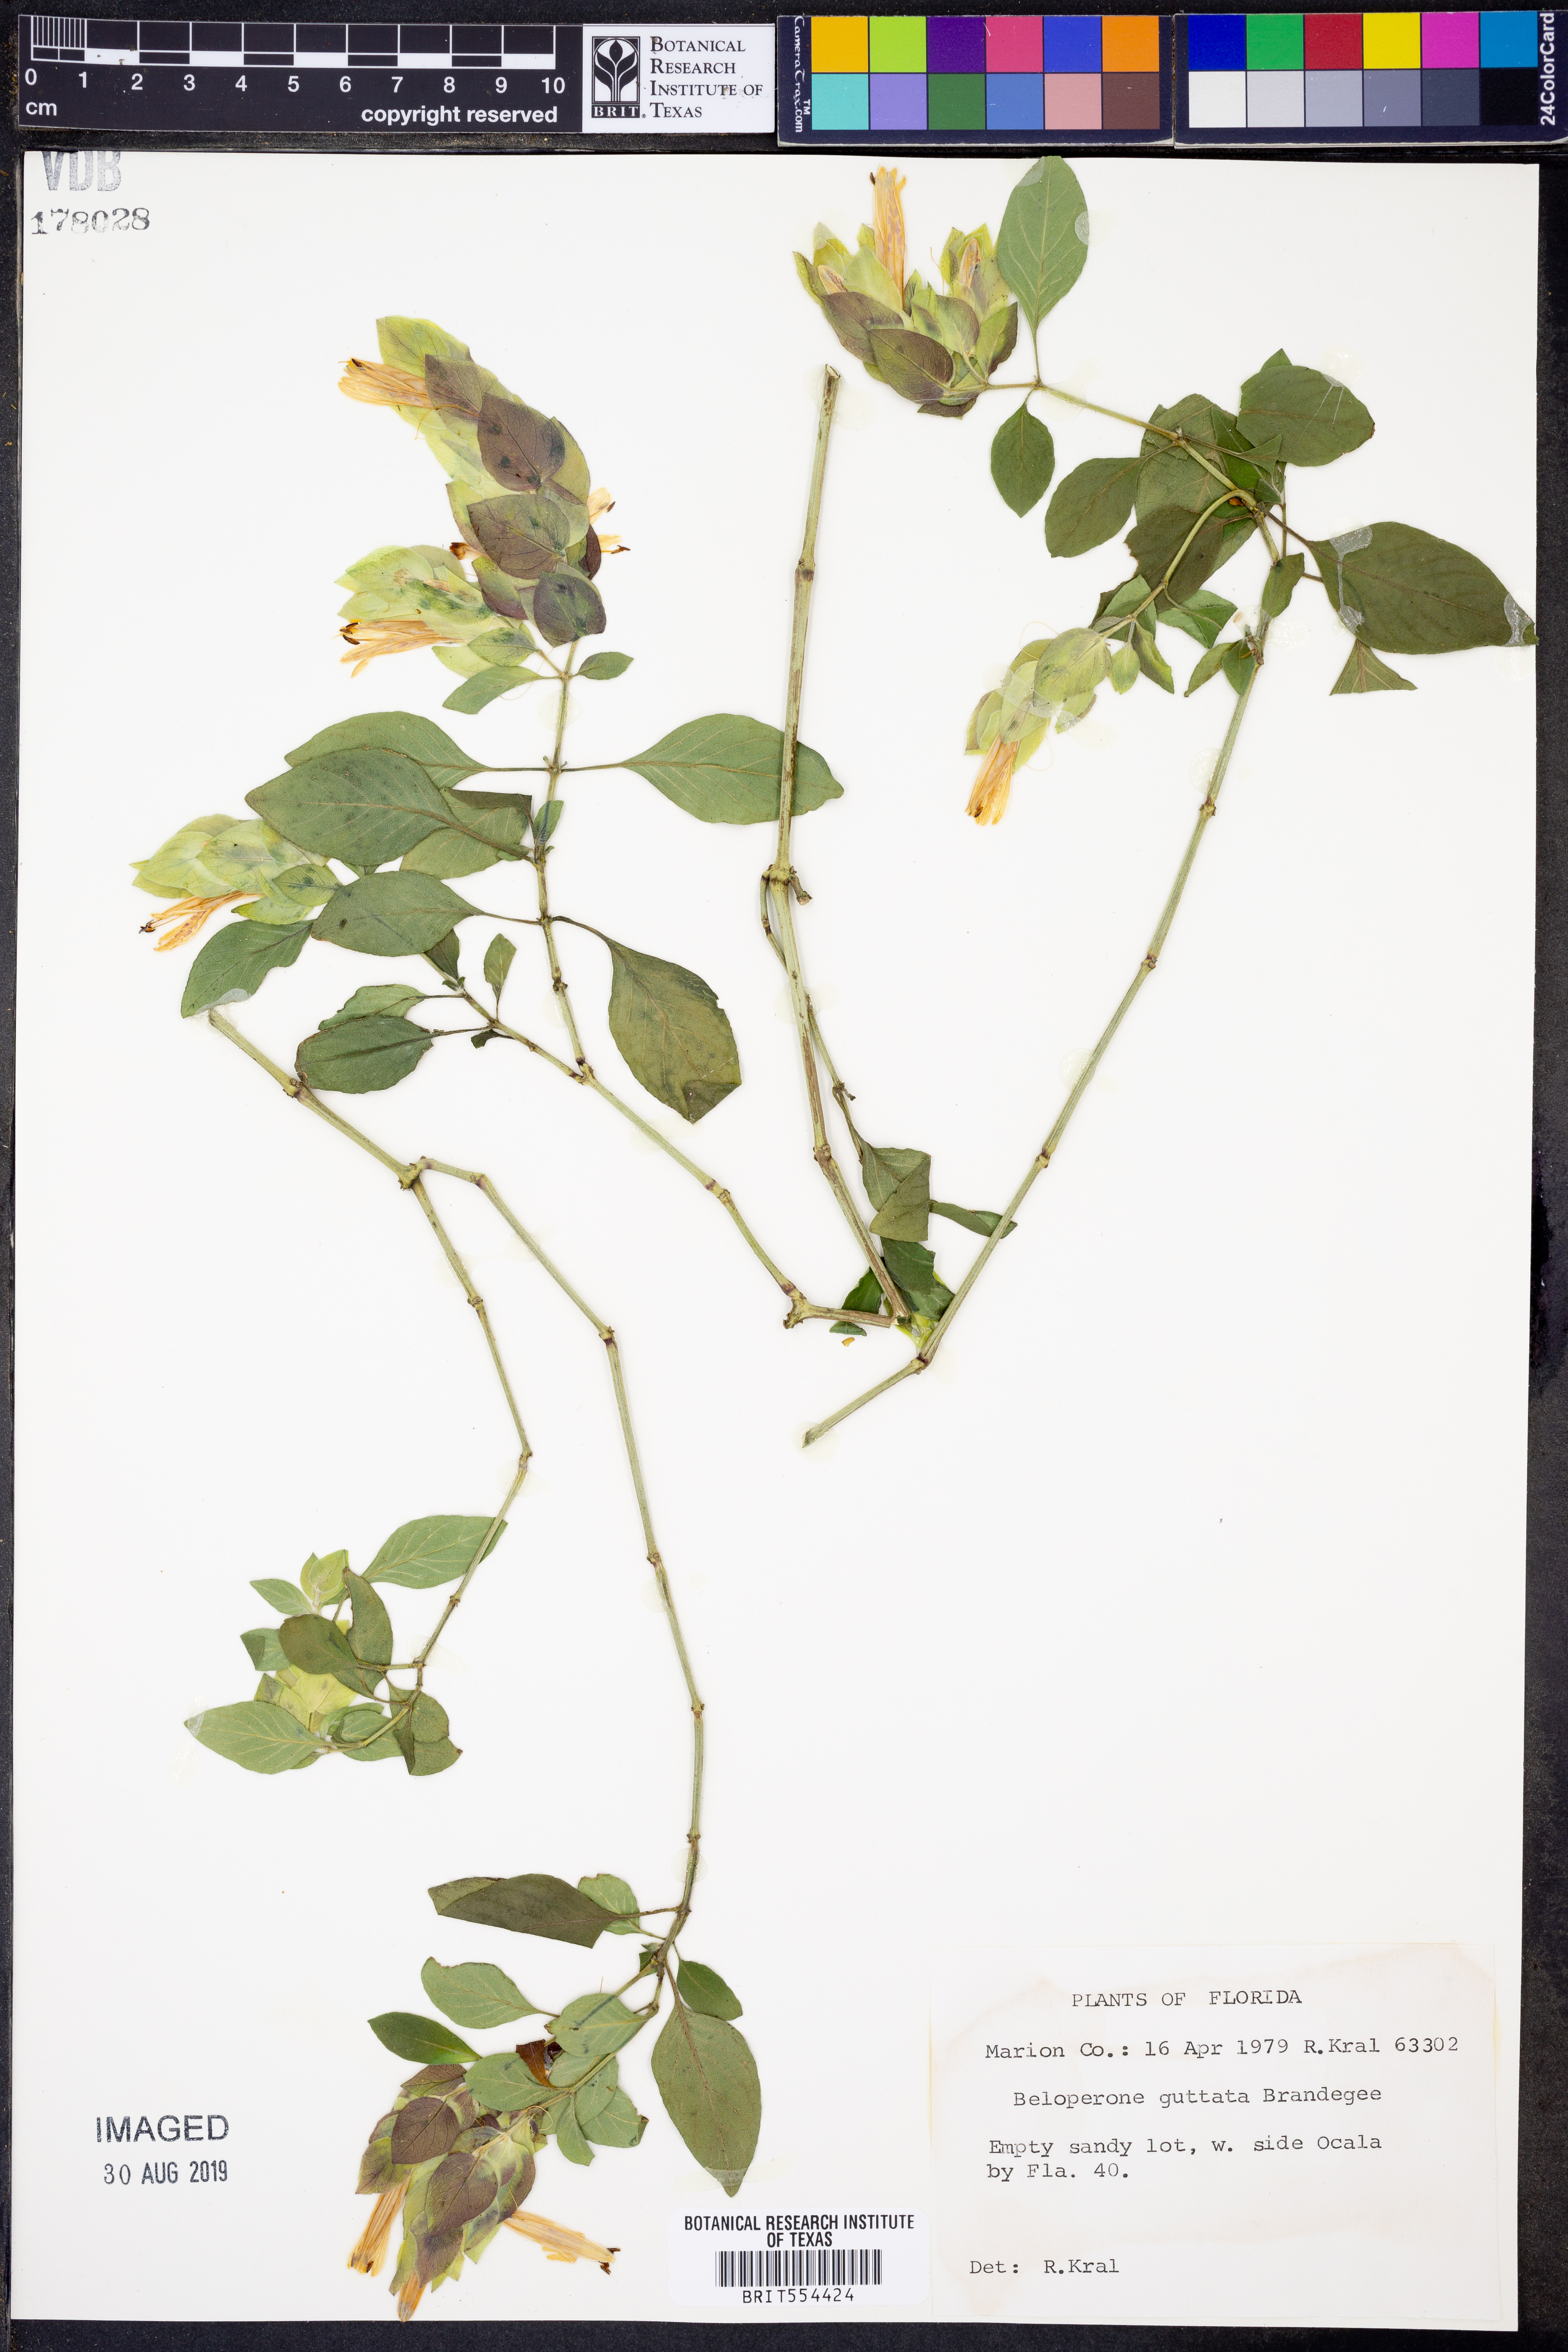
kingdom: Plantae
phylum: Tracheophyta
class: Magnoliopsida
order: Lamiales
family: Acanthaceae
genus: Justicia
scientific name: Justicia brandegeeana
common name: Shrimpplant
